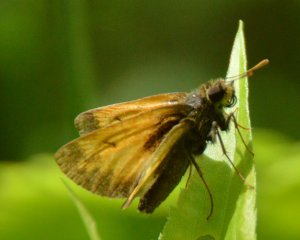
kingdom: Animalia
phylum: Arthropoda
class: Insecta
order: Lepidoptera
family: Hesperiidae
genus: Lon
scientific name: Lon hobomok
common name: Hobomok Skipper
